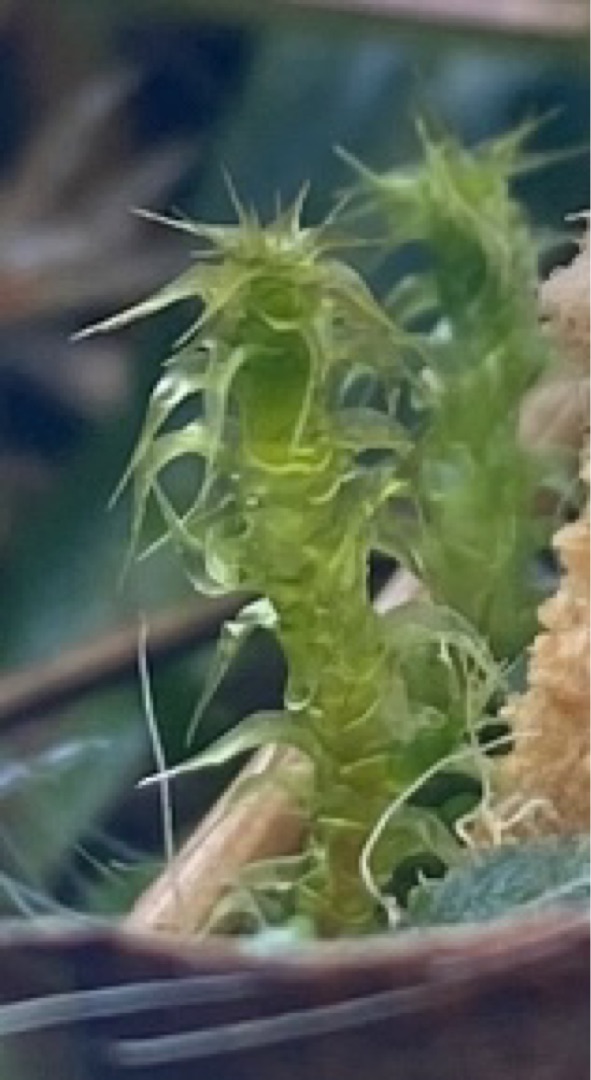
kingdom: Plantae
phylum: Bryophyta
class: Bryopsida
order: Hypnales
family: Hylocomiaceae
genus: Rhytidiadelphus
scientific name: Rhytidiadelphus squarrosus
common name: Plæne-kransemos
